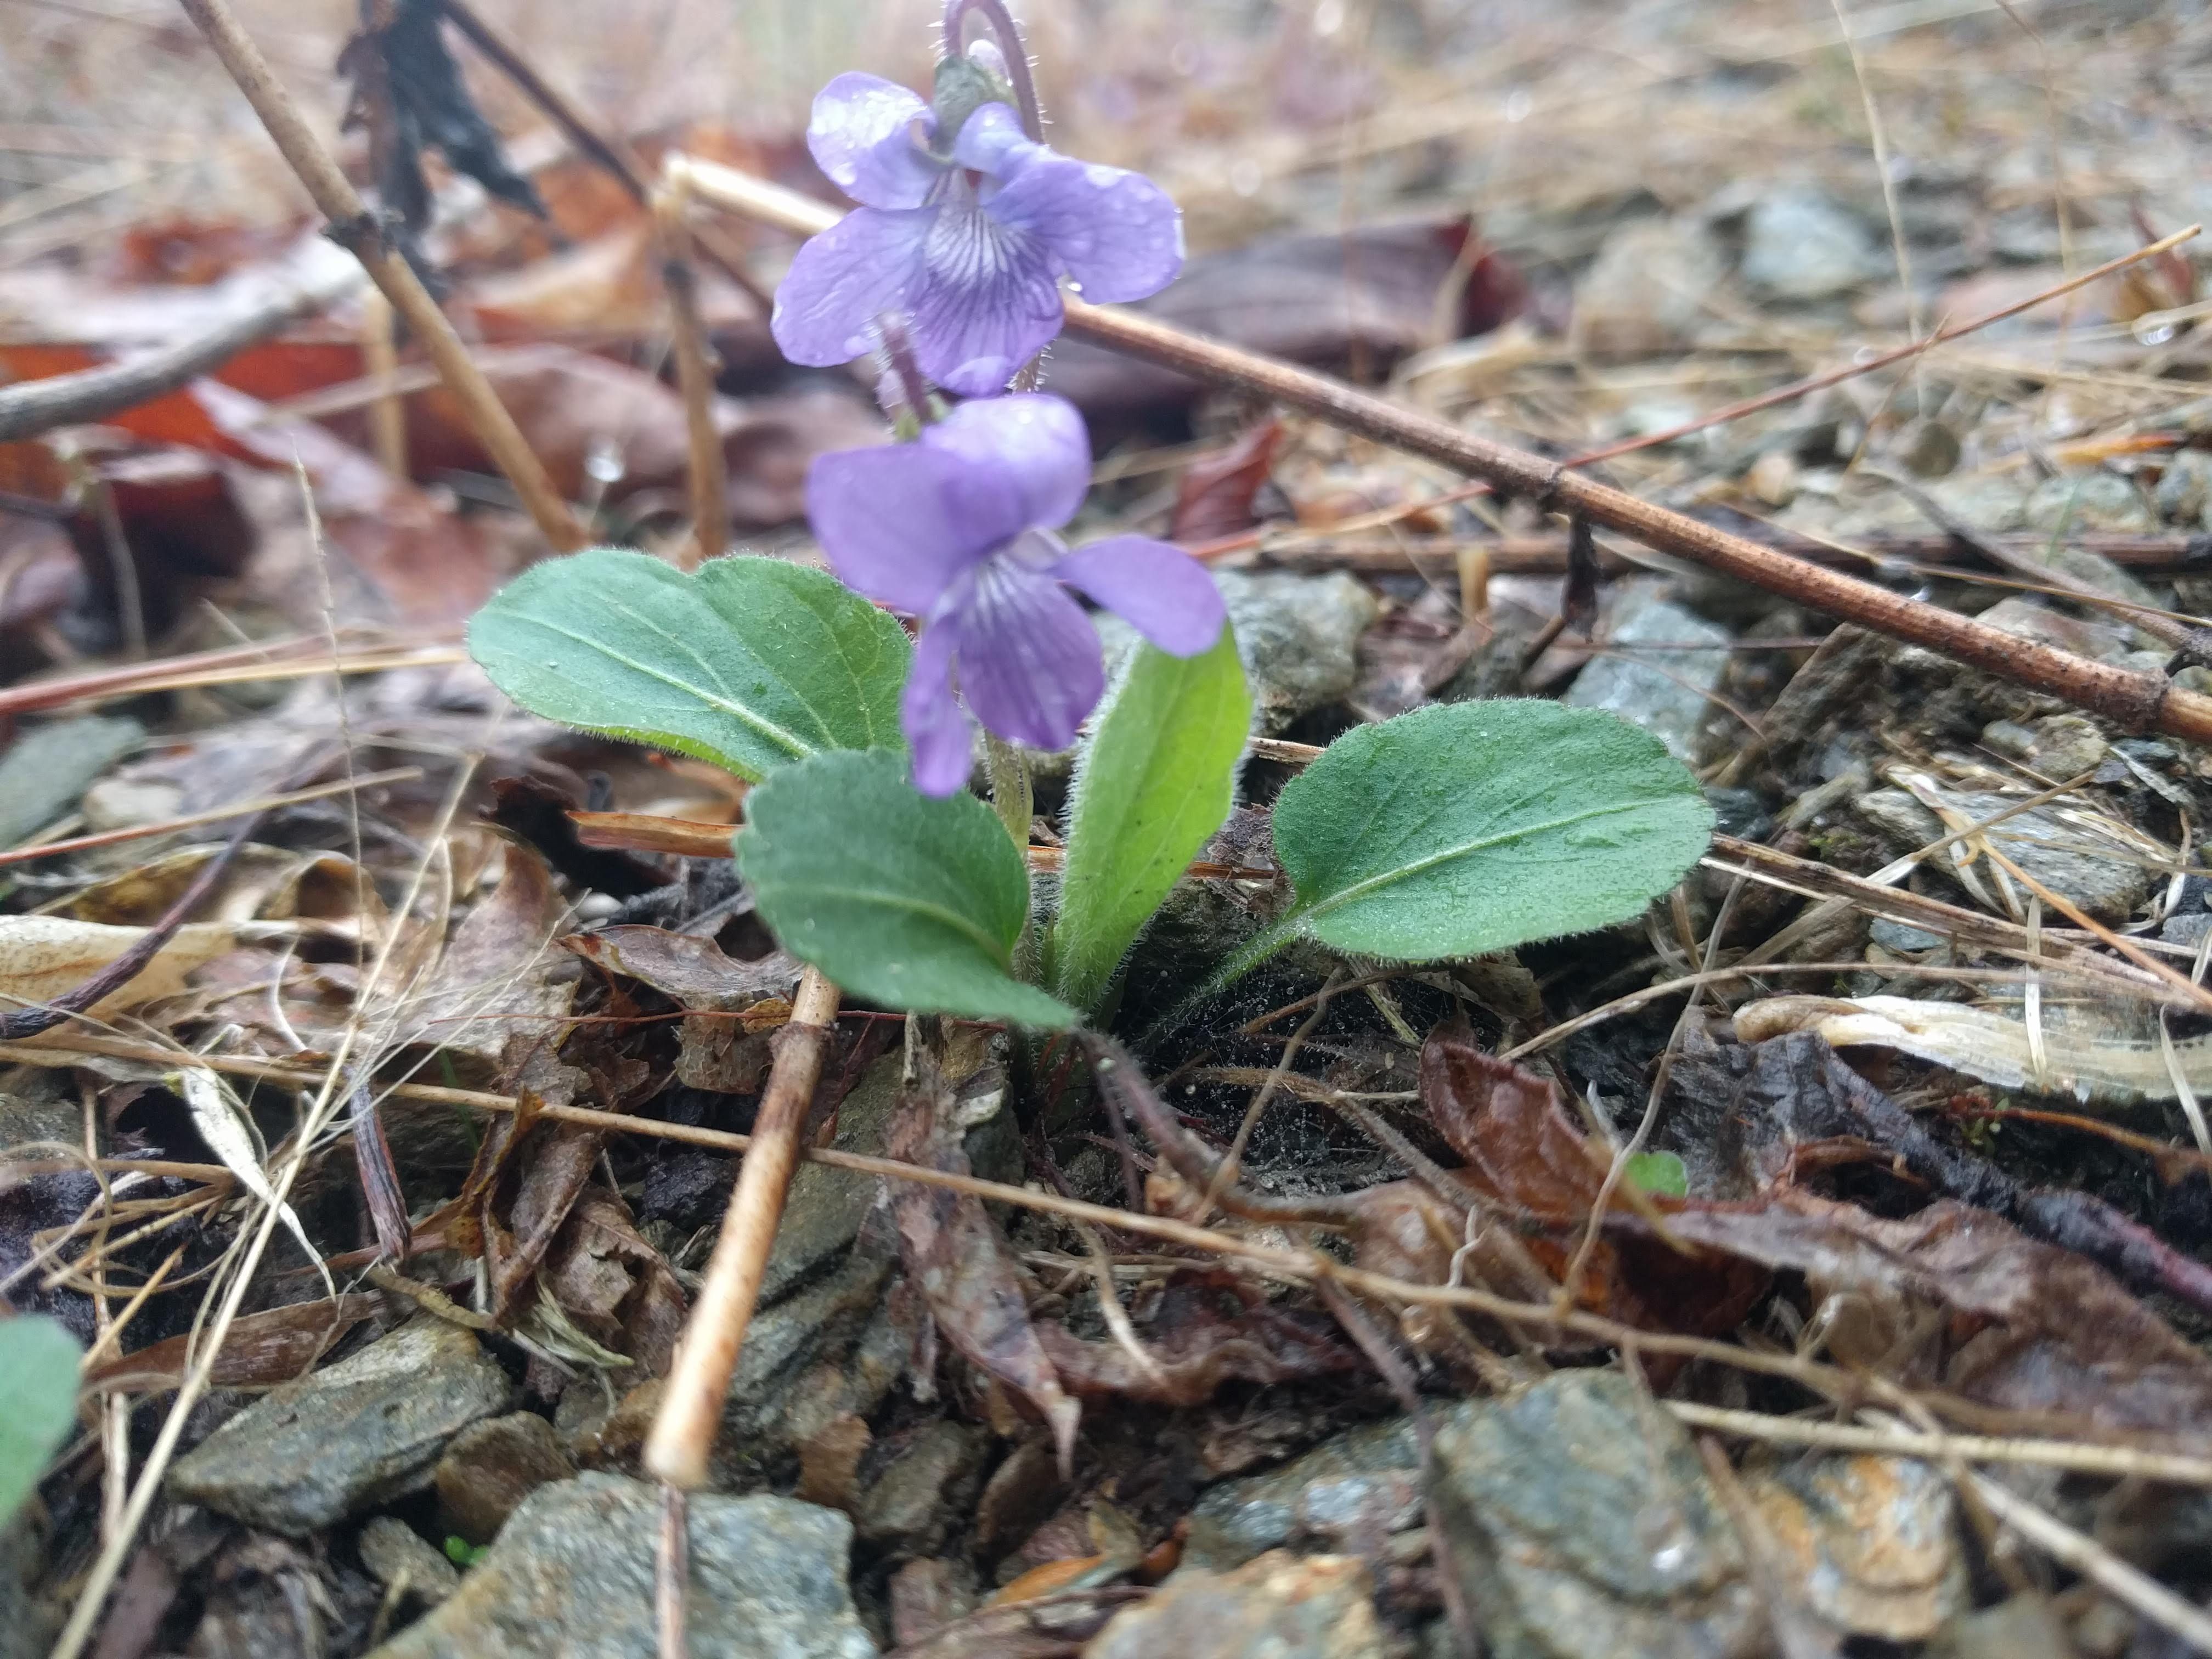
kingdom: Plantae
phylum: Tracheophyta
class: Magnoliopsida
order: Malpighiales
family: Violaceae
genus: Viola
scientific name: Viola sagittata
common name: Arrowhead violet
